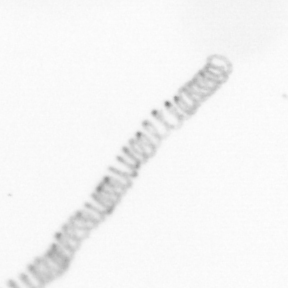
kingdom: Chromista
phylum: Ochrophyta
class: Bacillariophyceae
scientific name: Bacillariophyceae
